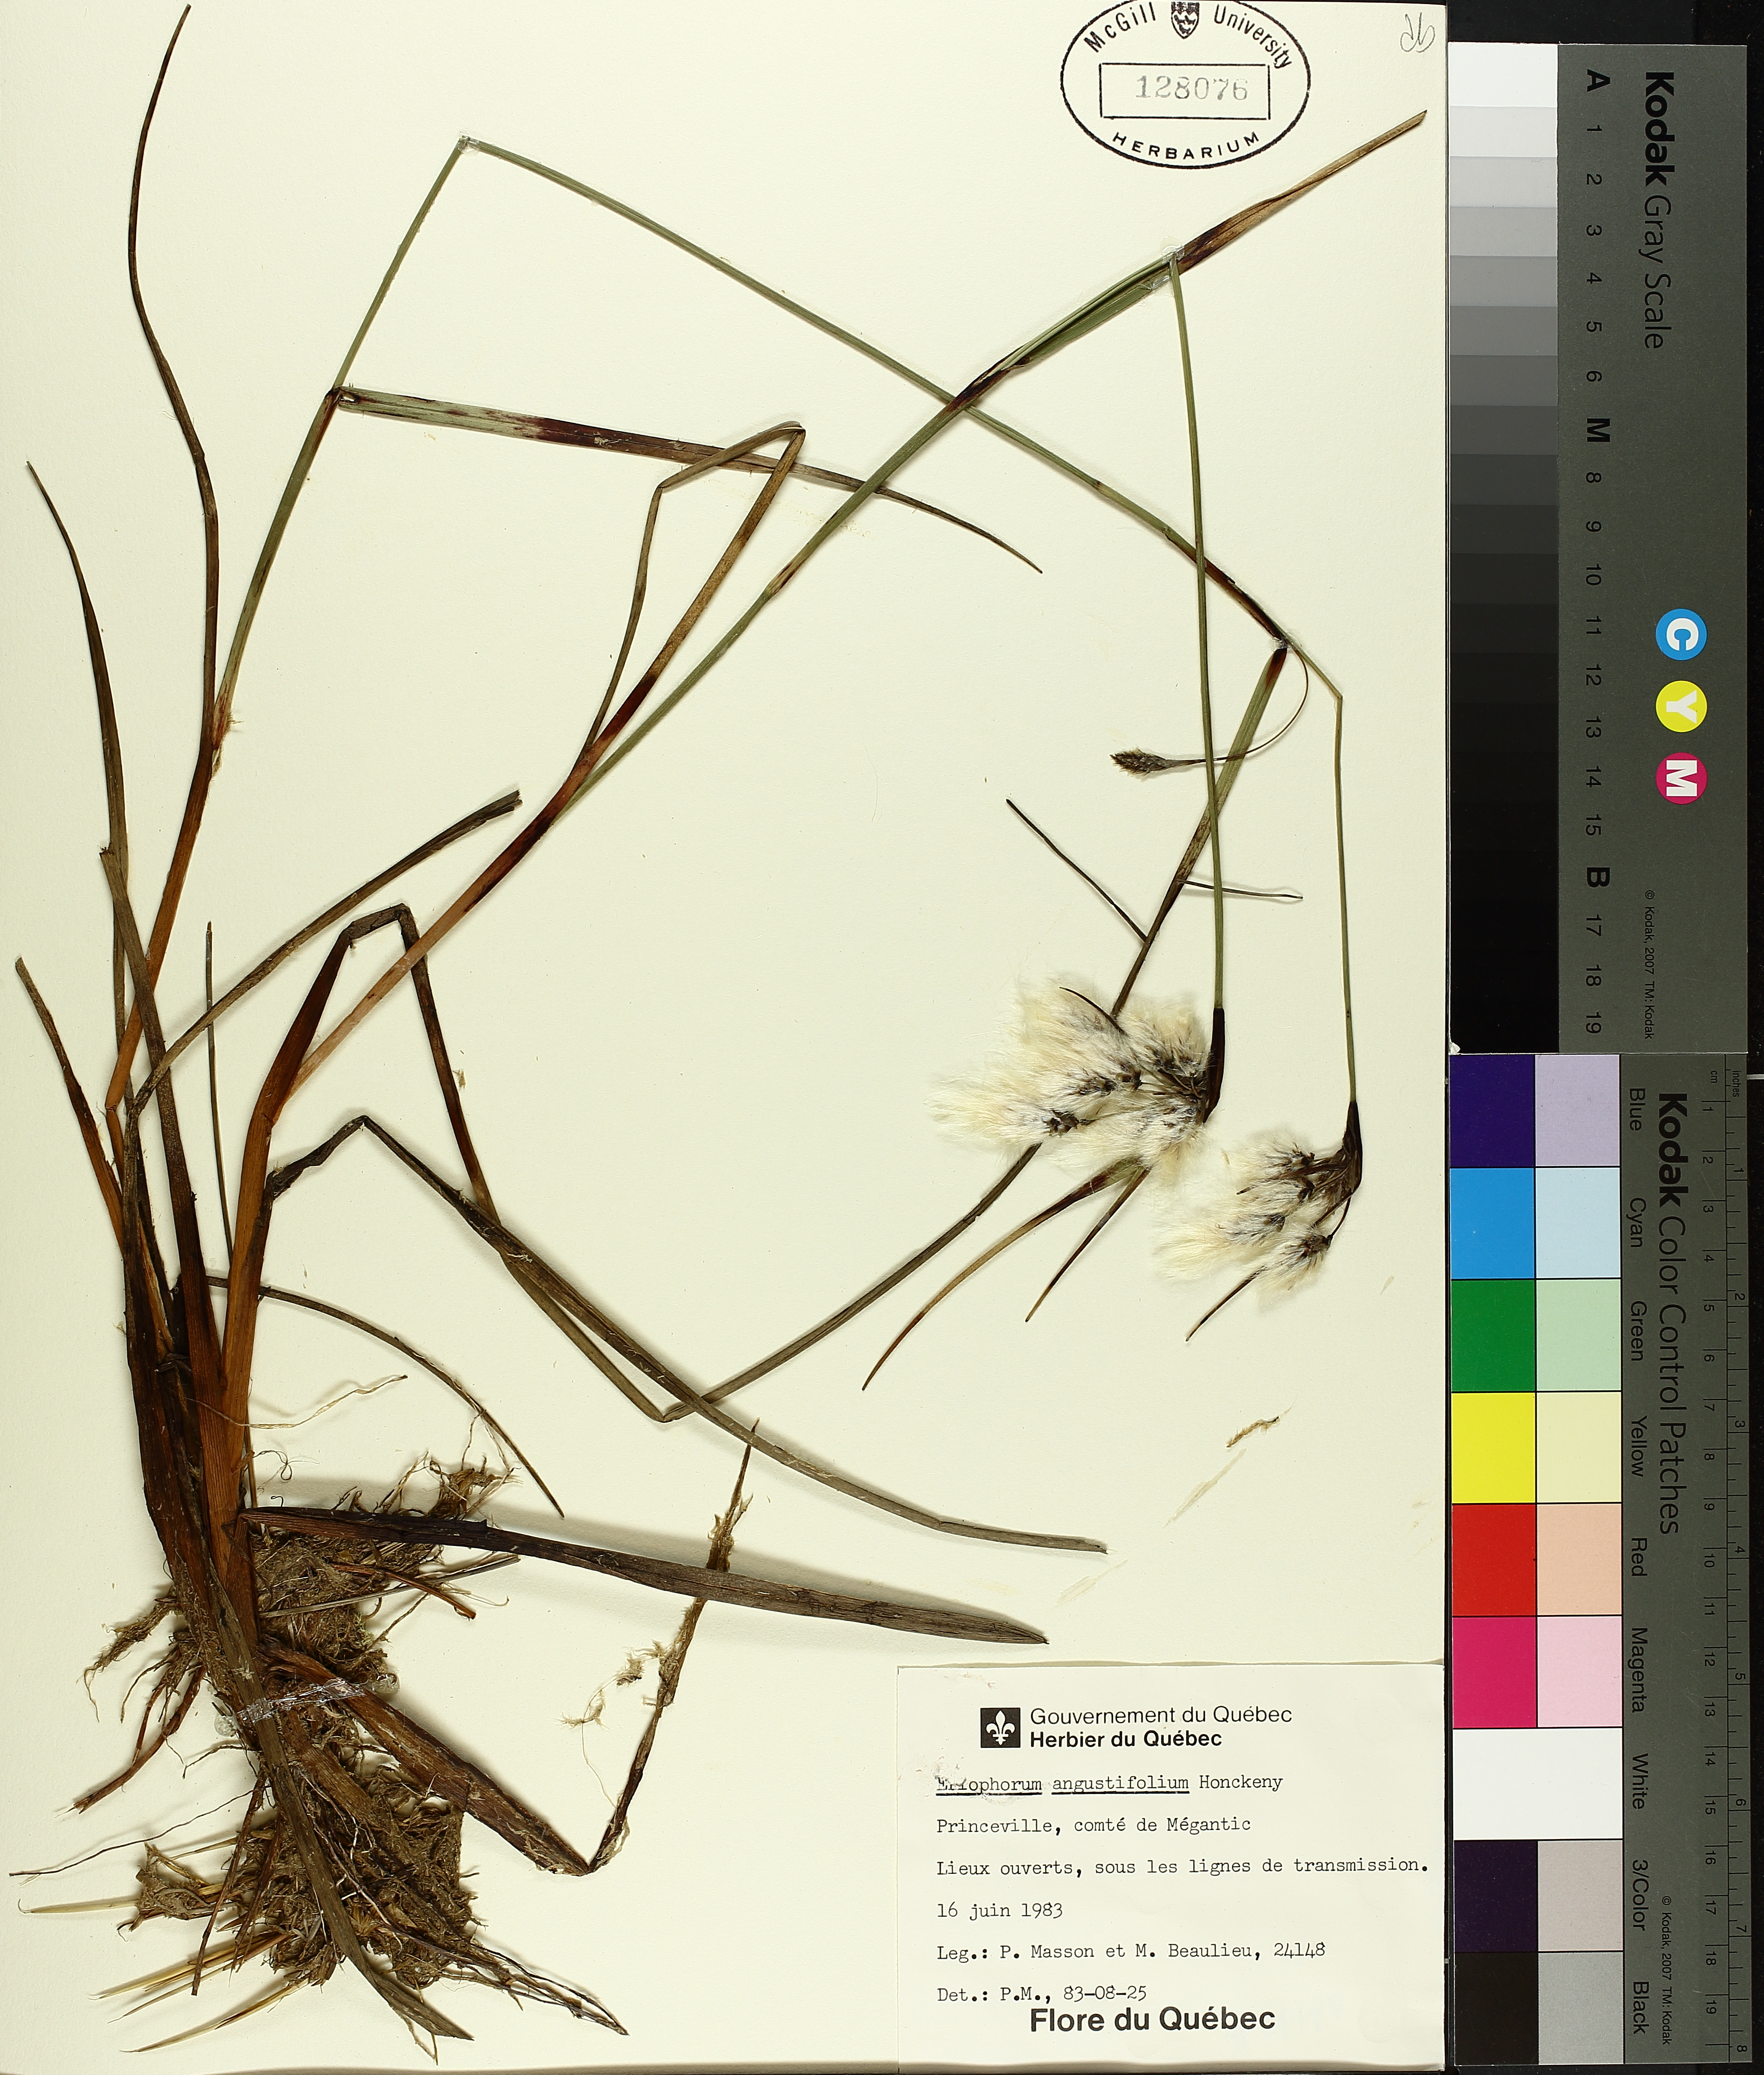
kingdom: Plantae
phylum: Tracheophyta
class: Liliopsida
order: Poales
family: Cyperaceae
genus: Eriophorum
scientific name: Eriophorum triste
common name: Tall cottongrass
